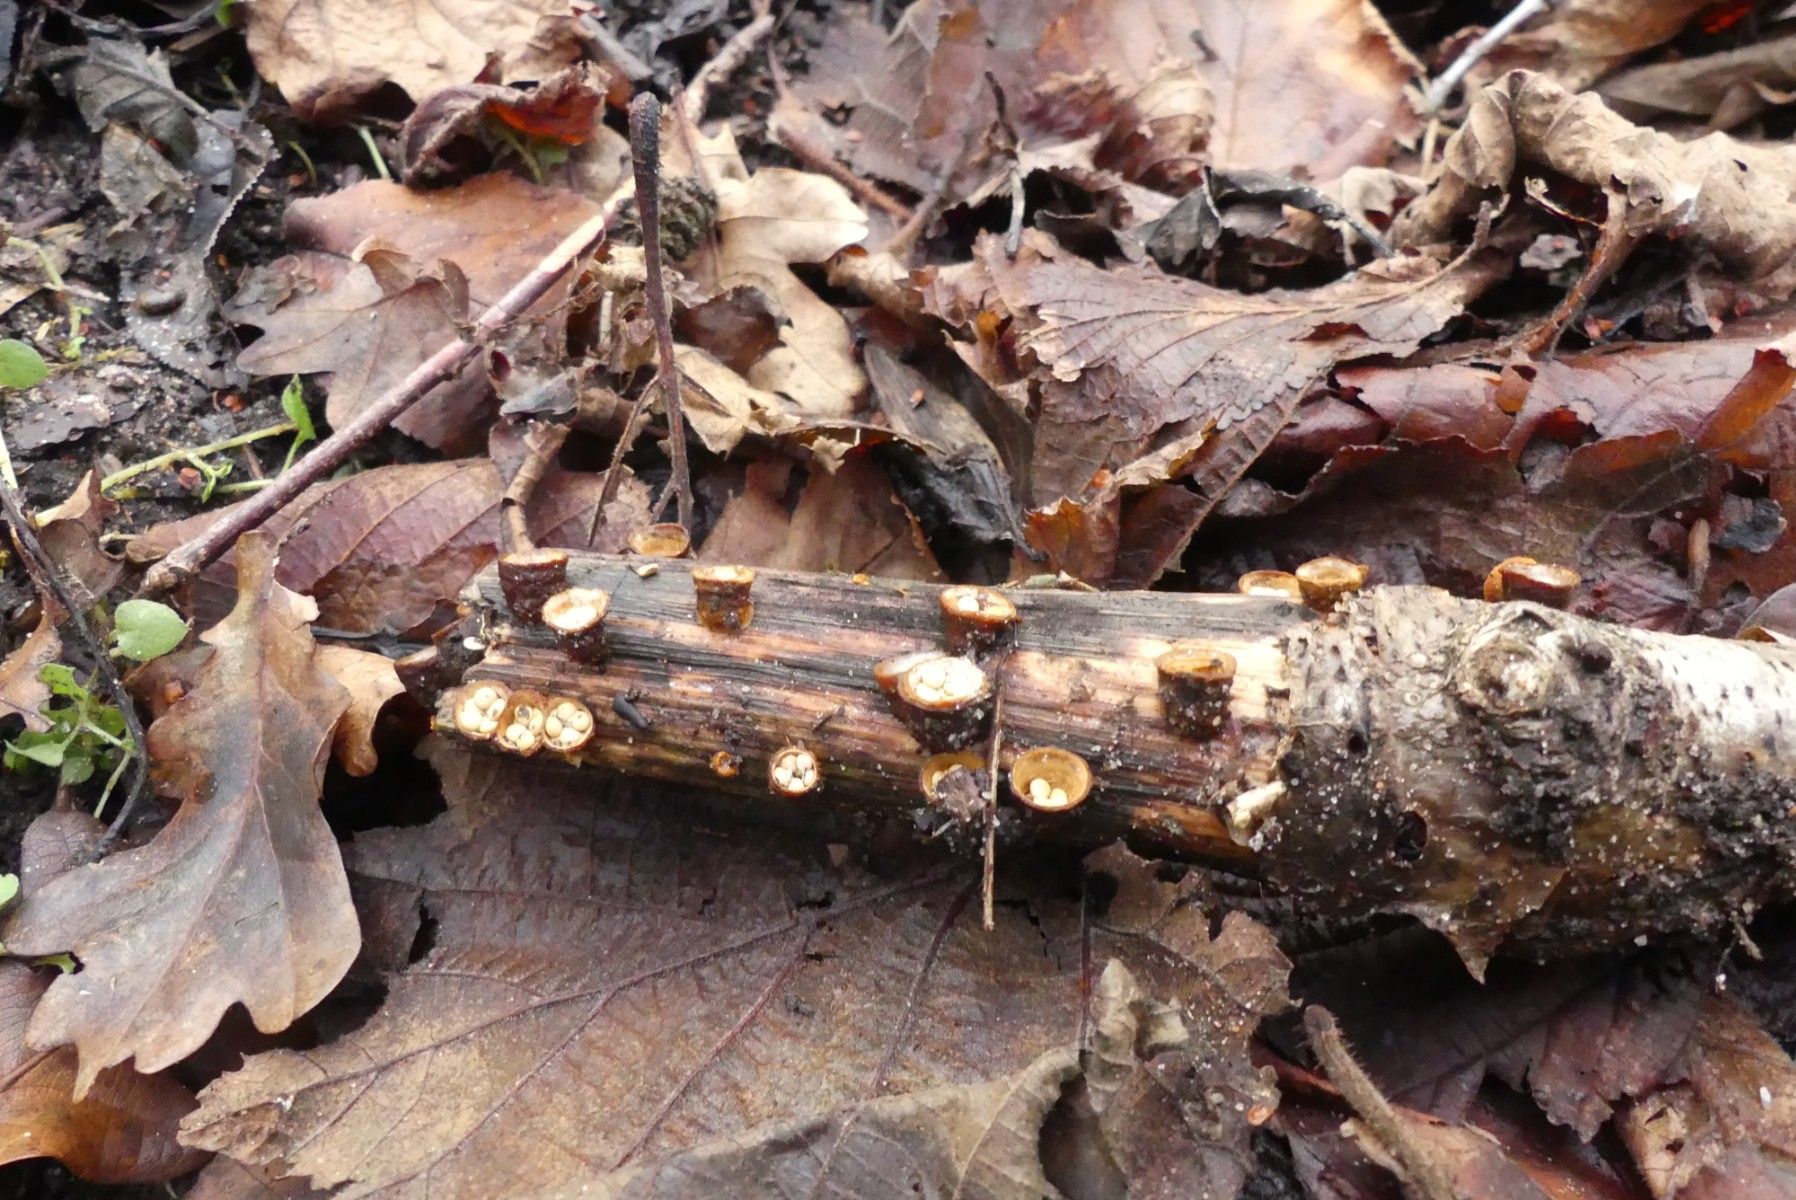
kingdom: Fungi
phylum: Basidiomycota
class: Agaricomycetes
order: Agaricales
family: Nidulariaceae
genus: Crucibulum
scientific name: Crucibulum crucibuliforme
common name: krukkesvamp
